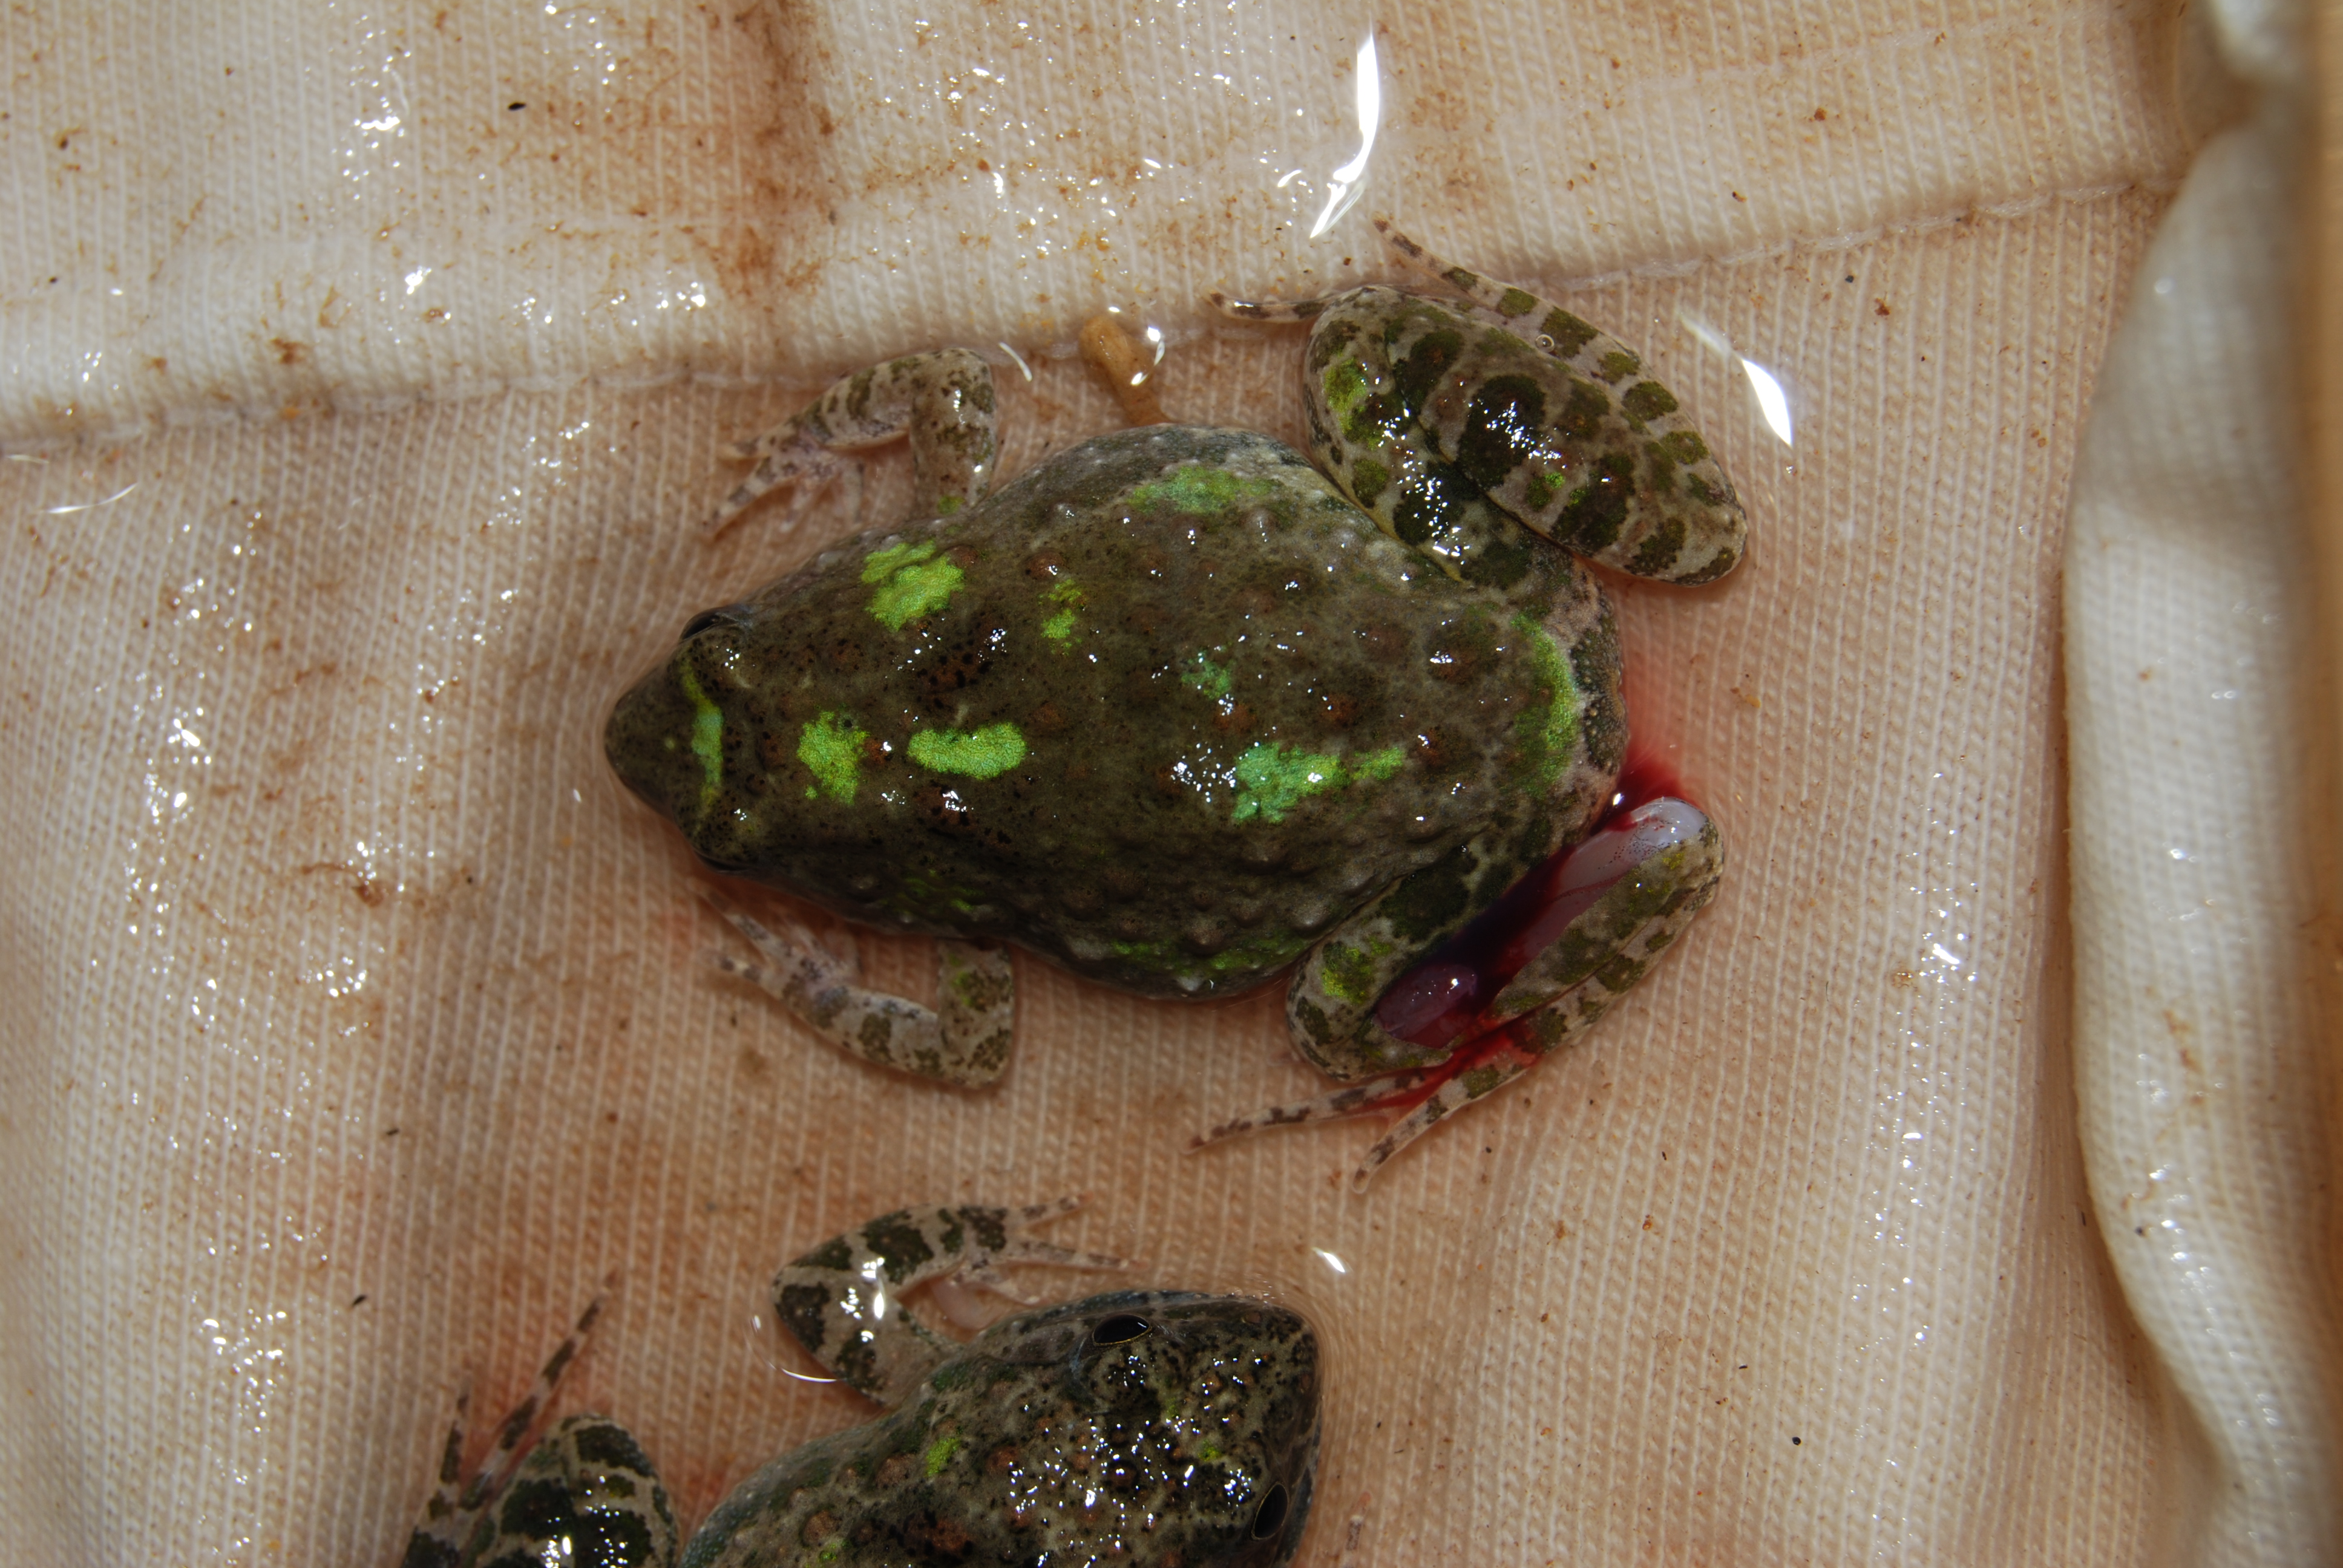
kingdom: Animalia
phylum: Chordata
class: Amphibia
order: Anura
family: Phrynobatrachidae
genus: Phrynobatrachus
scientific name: Phrynobatrachus natalensis
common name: Snoring puddle frog
